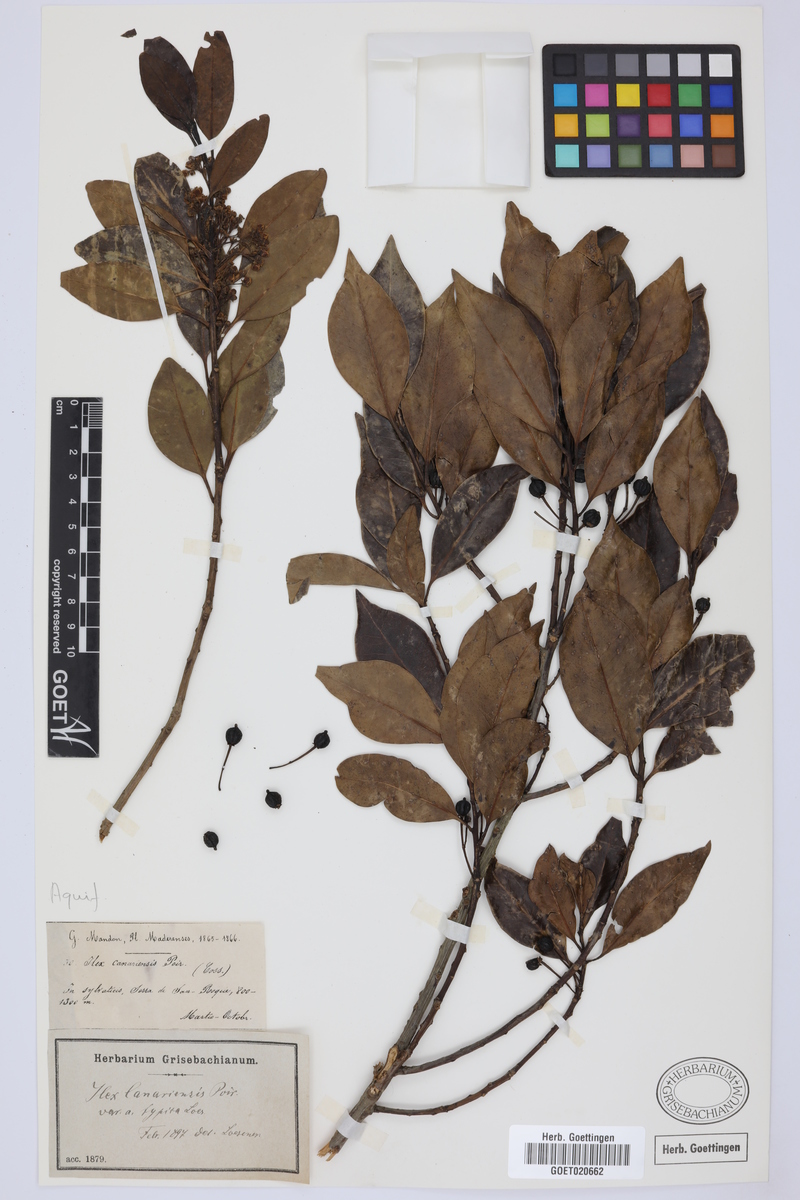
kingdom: Plantae
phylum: Tracheophyta
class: Magnoliopsida
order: Aquifoliales
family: Aquifoliaceae
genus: Ilex
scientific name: Ilex canariensis
